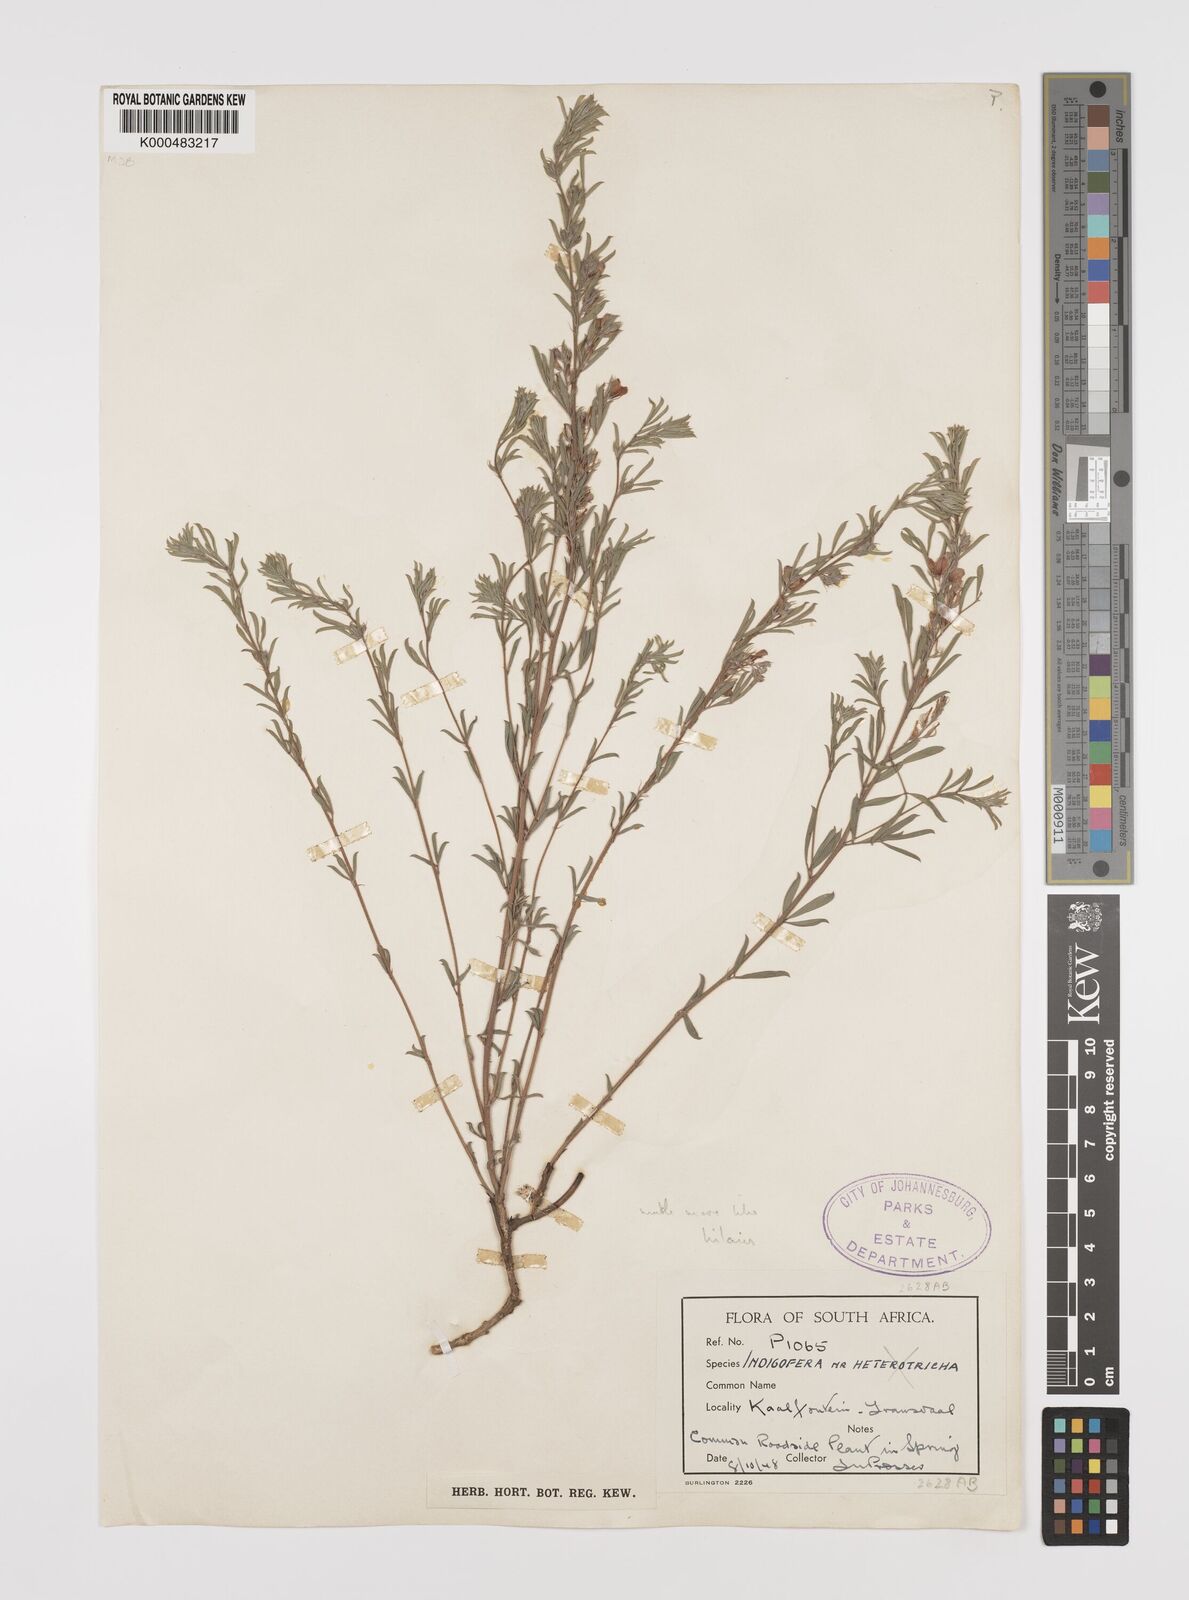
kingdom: Plantae
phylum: Tracheophyta
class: Magnoliopsida
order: Fabales
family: Fabaceae
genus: Indigofera
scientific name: Indigofera hybrida
